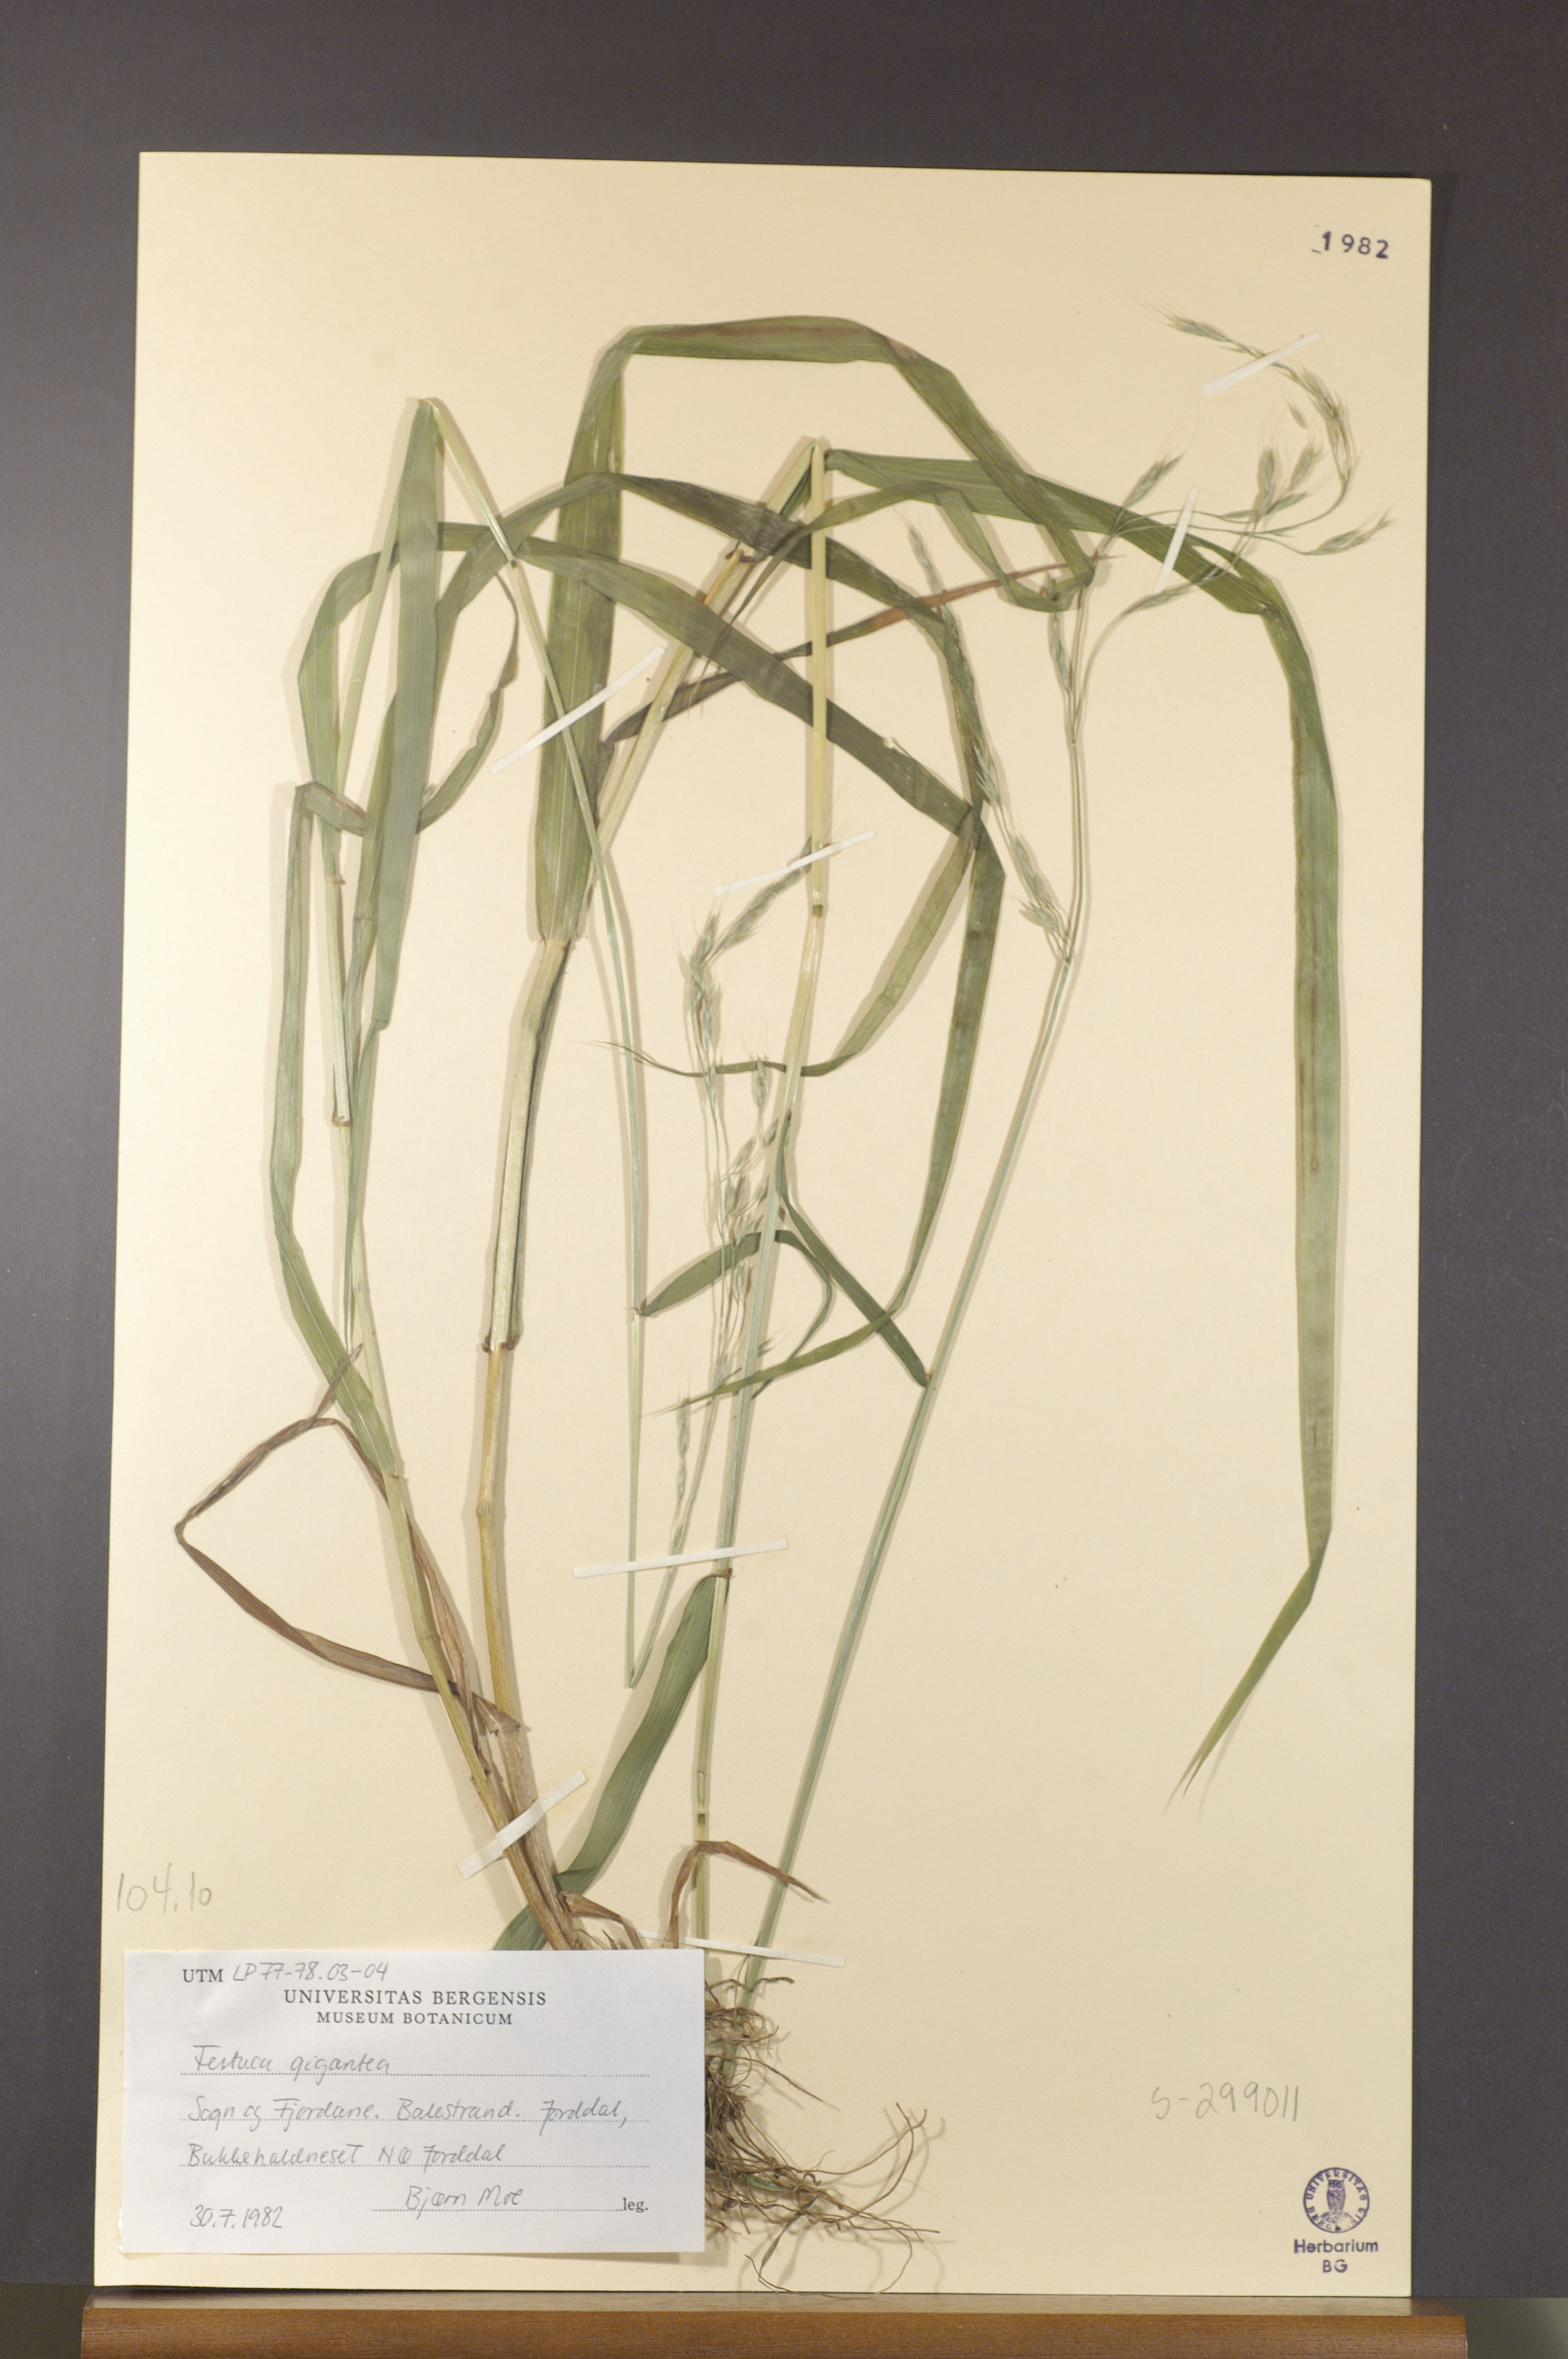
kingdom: Plantae
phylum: Tracheophyta
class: Liliopsida
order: Poales
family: Poaceae
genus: Lolium
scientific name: Lolium giganteum
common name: Giant fescue
